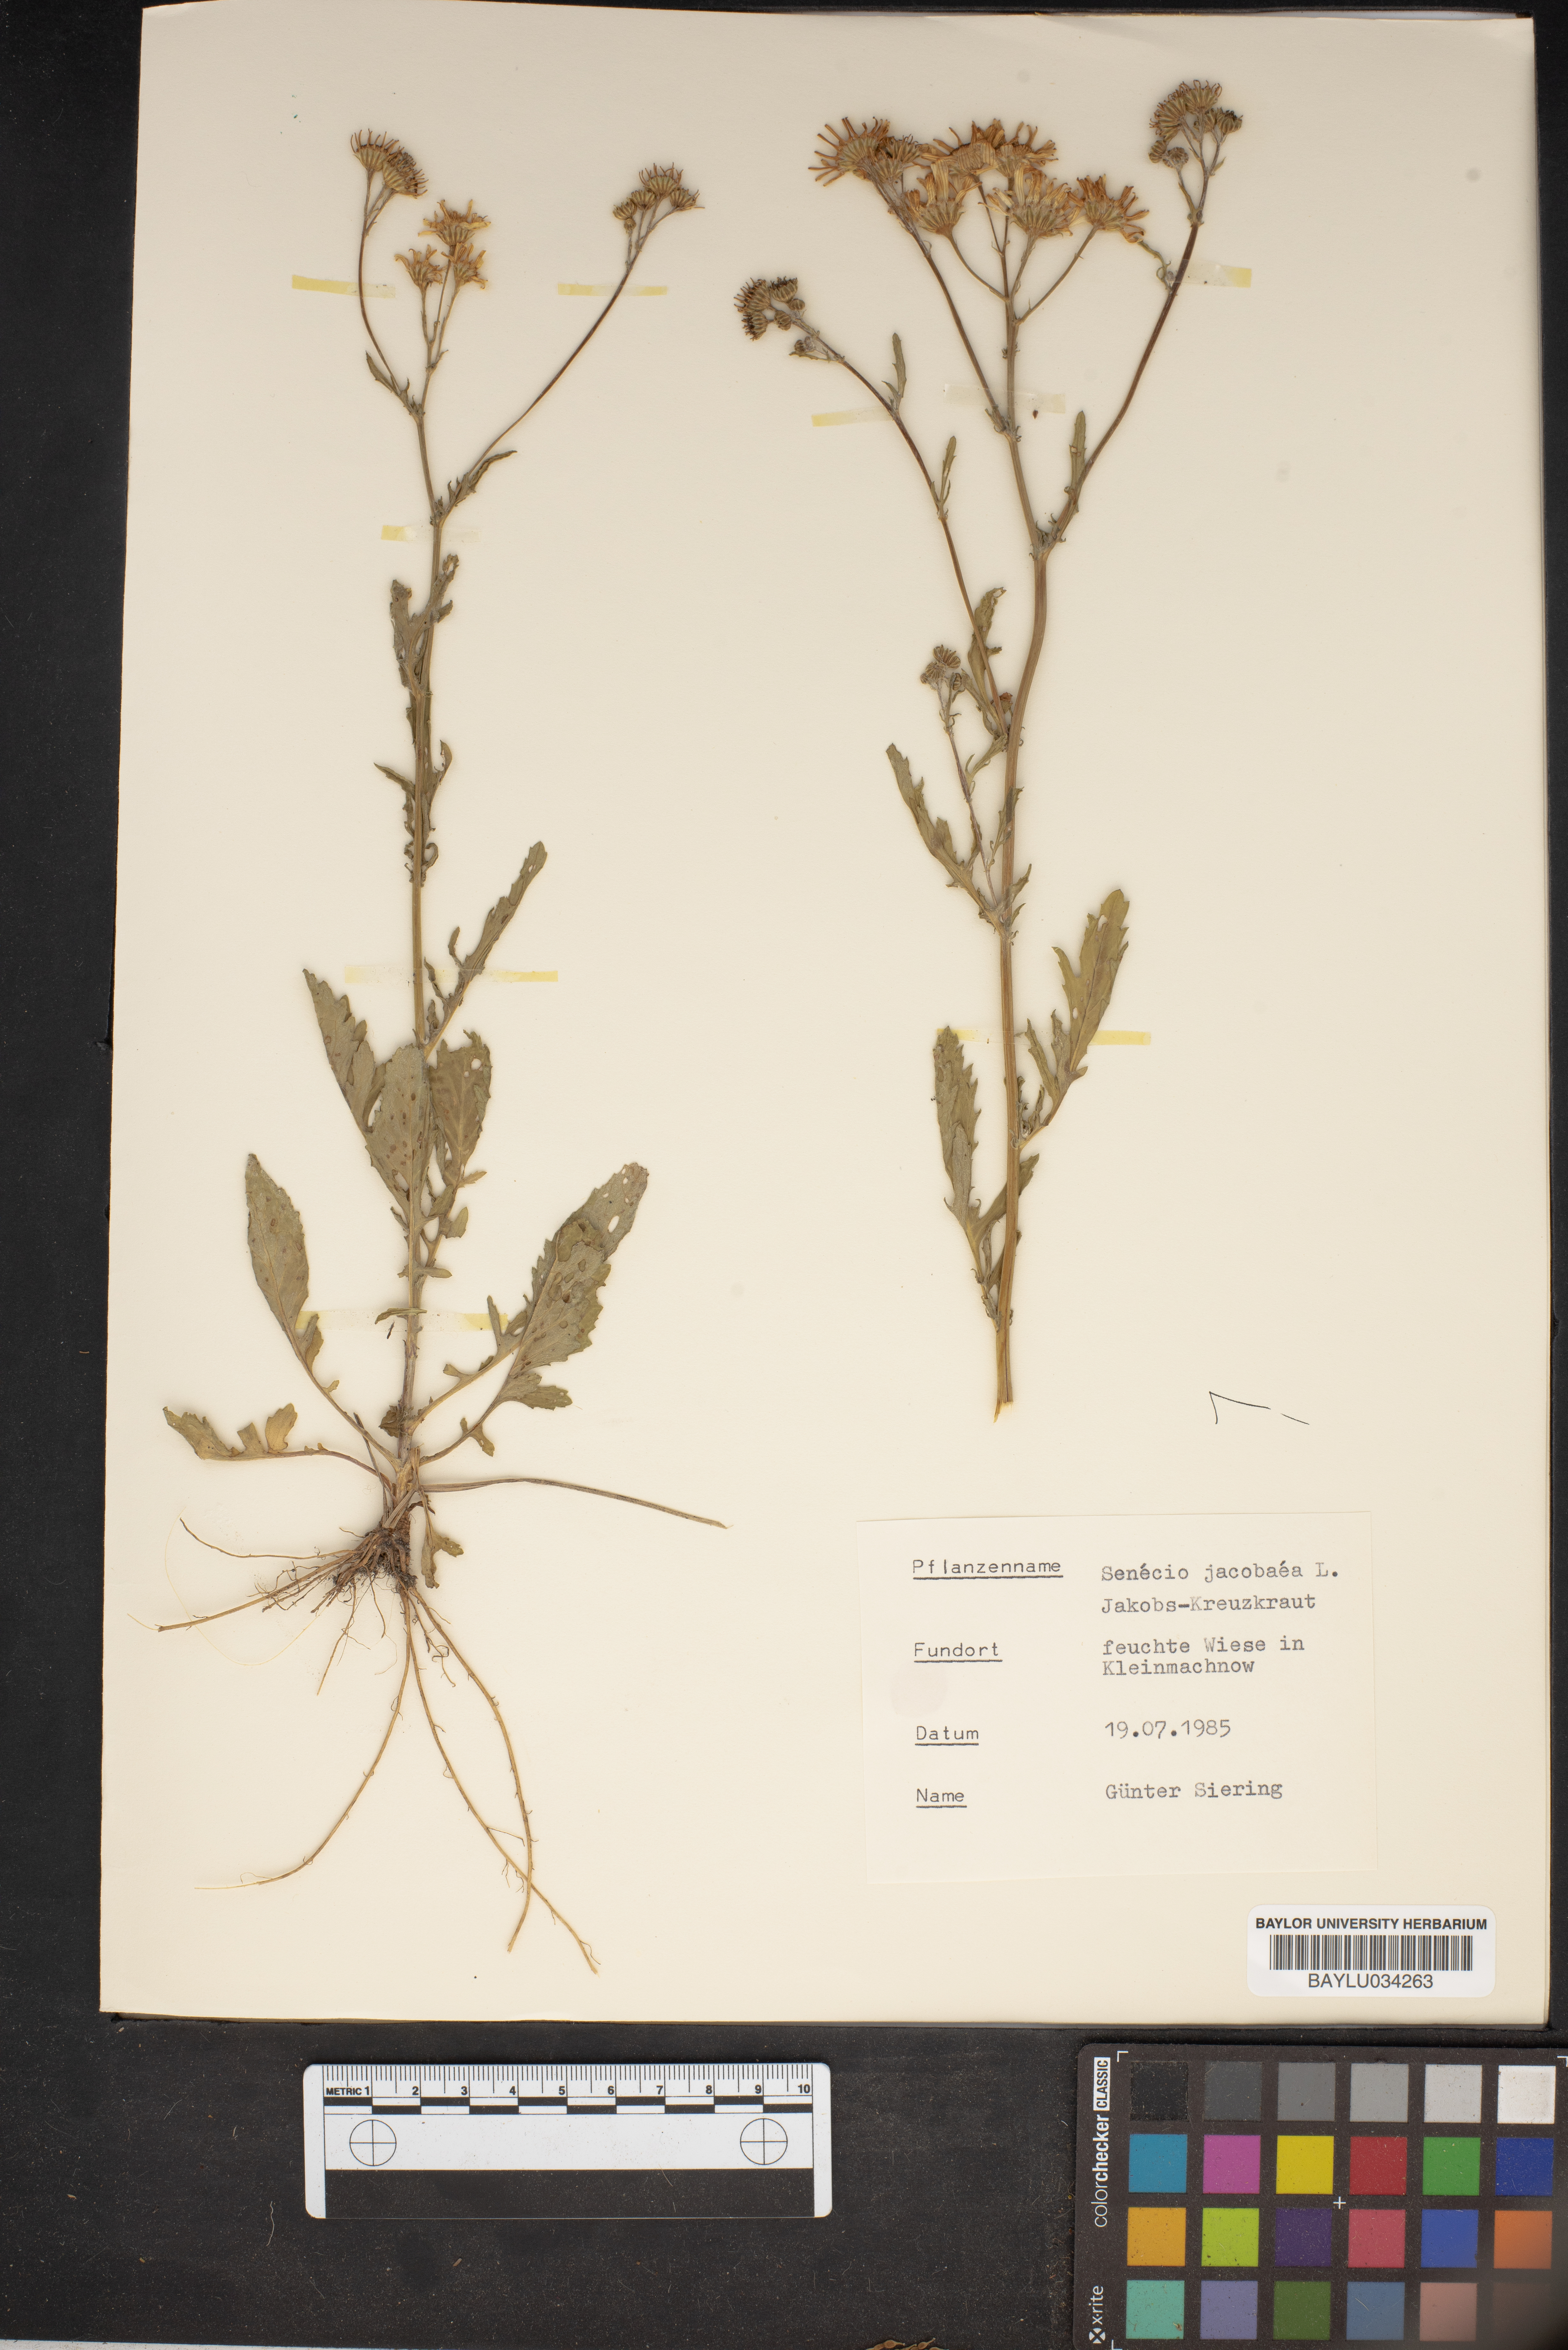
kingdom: Plantae
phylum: Tracheophyta
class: Magnoliopsida
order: Asterales
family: Asteraceae
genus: Jacobaea
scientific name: Jacobaea vulgaris
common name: Stinking willie
